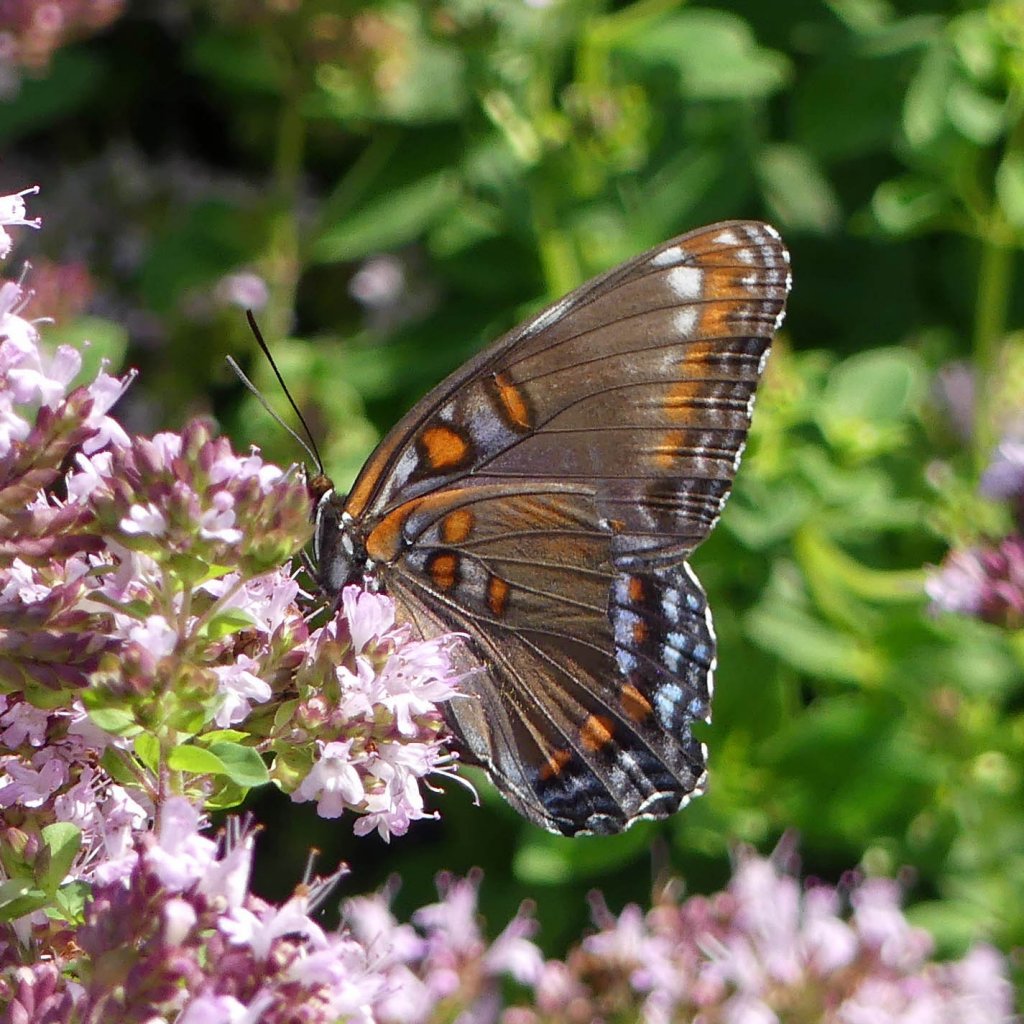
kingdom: Animalia
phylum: Arthropoda
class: Insecta
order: Lepidoptera
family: Nymphalidae
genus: Limenitis
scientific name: Limenitis astyanax
